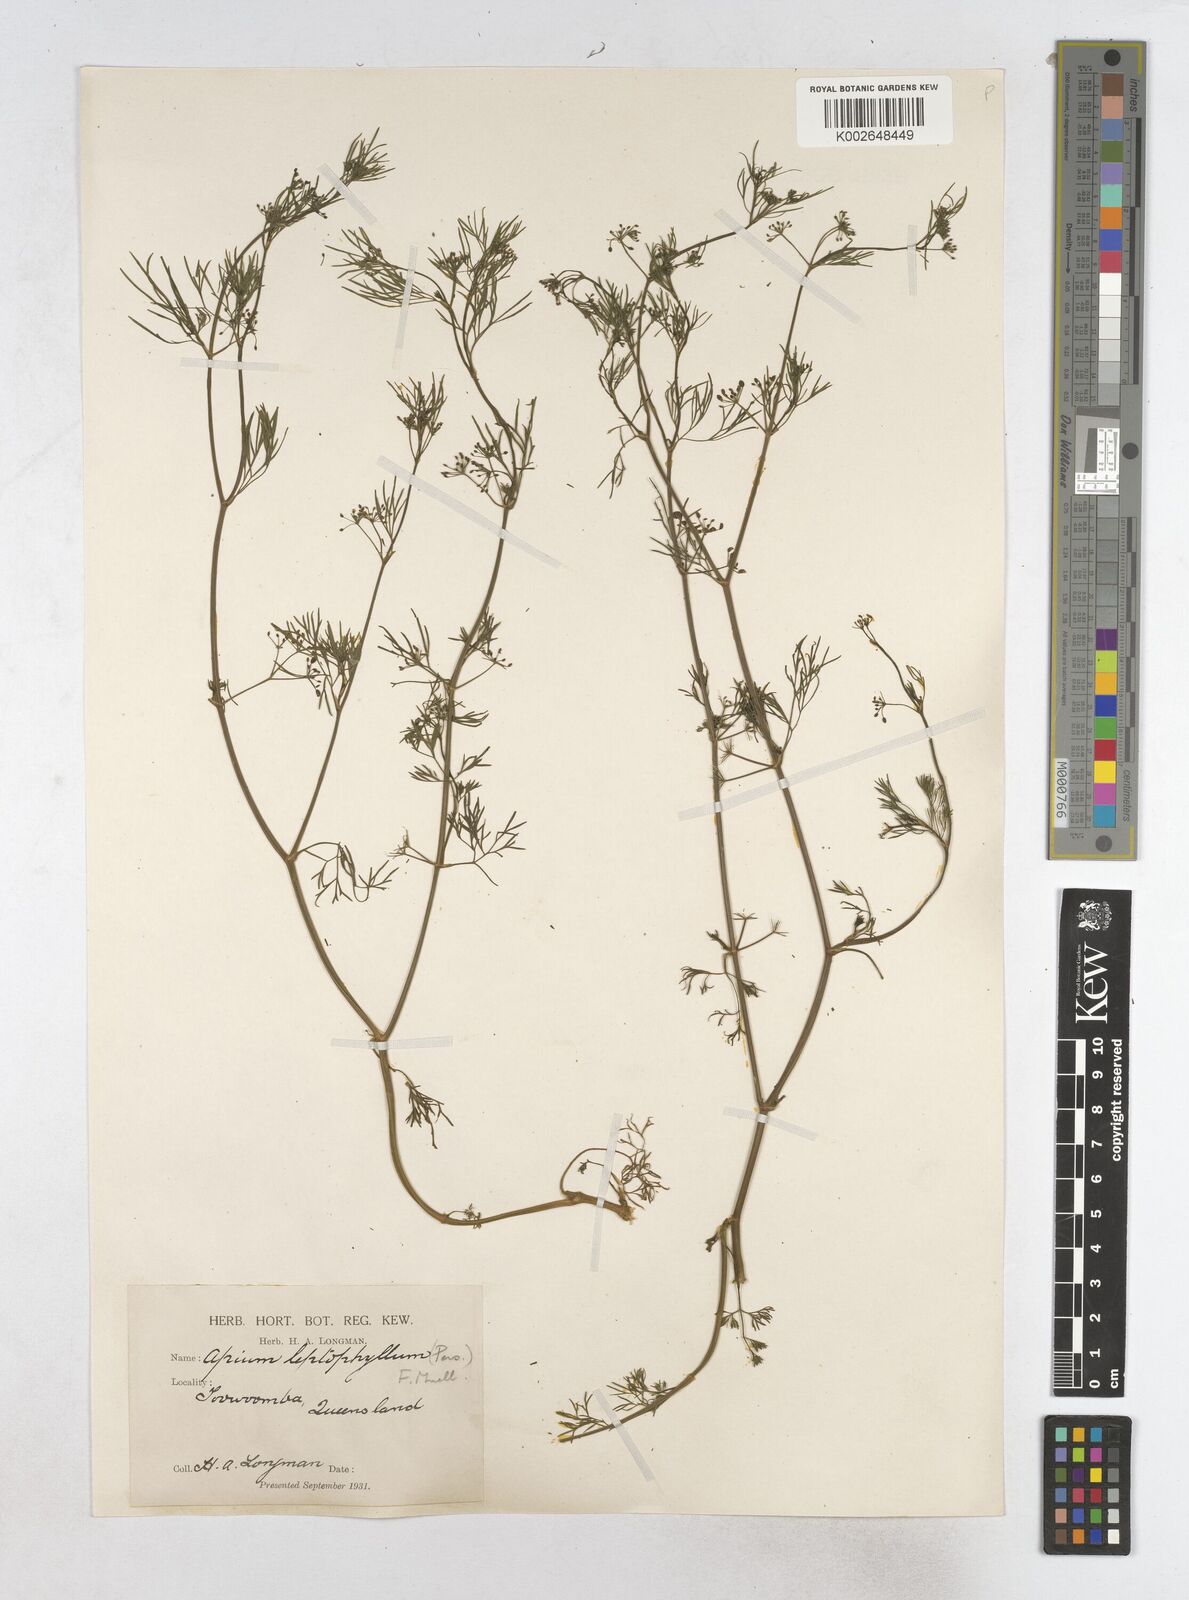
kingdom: Plantae
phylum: Tracheophyta
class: Magnoliopsida
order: Apiales
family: Apiaceae
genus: Cyclospermum
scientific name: Cyclospermum leptophyllum
